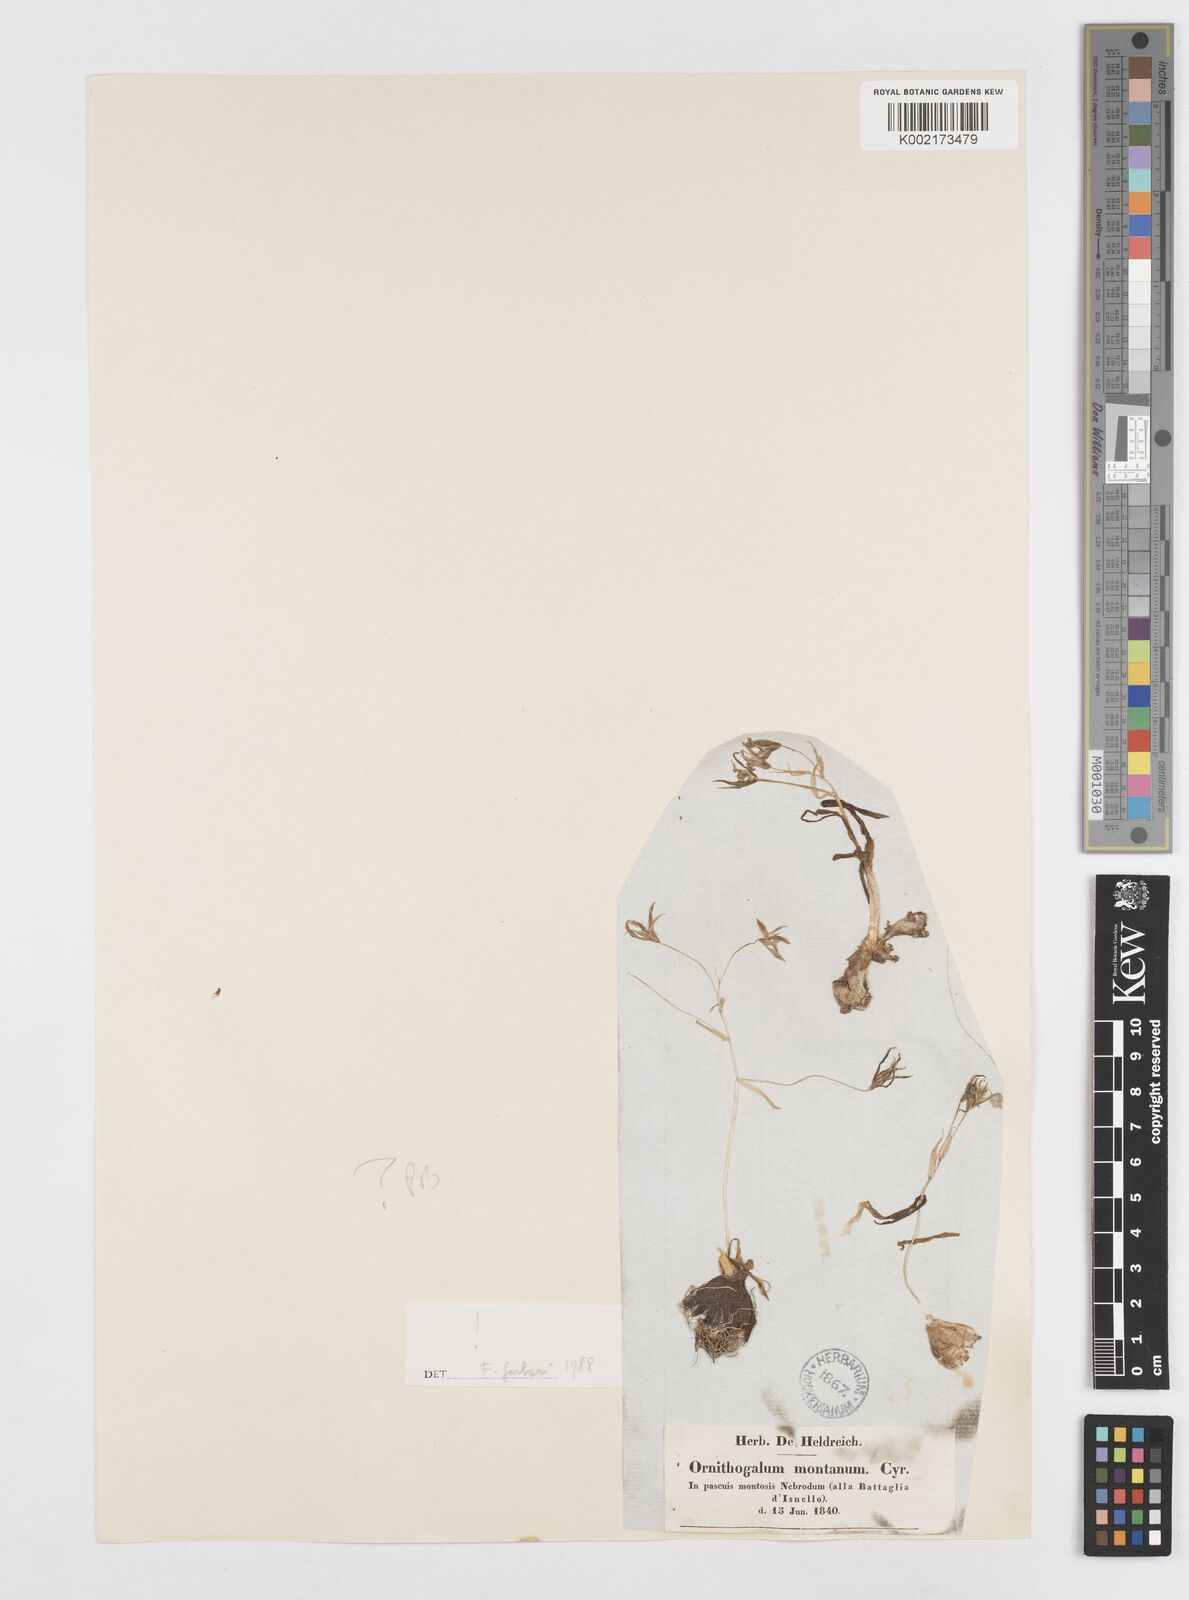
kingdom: Plantae
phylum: Tracheophyta
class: Liliopsida
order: Asparagales
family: Asparagaceae
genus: Ornithogalum
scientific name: Ornithogalum montanum
